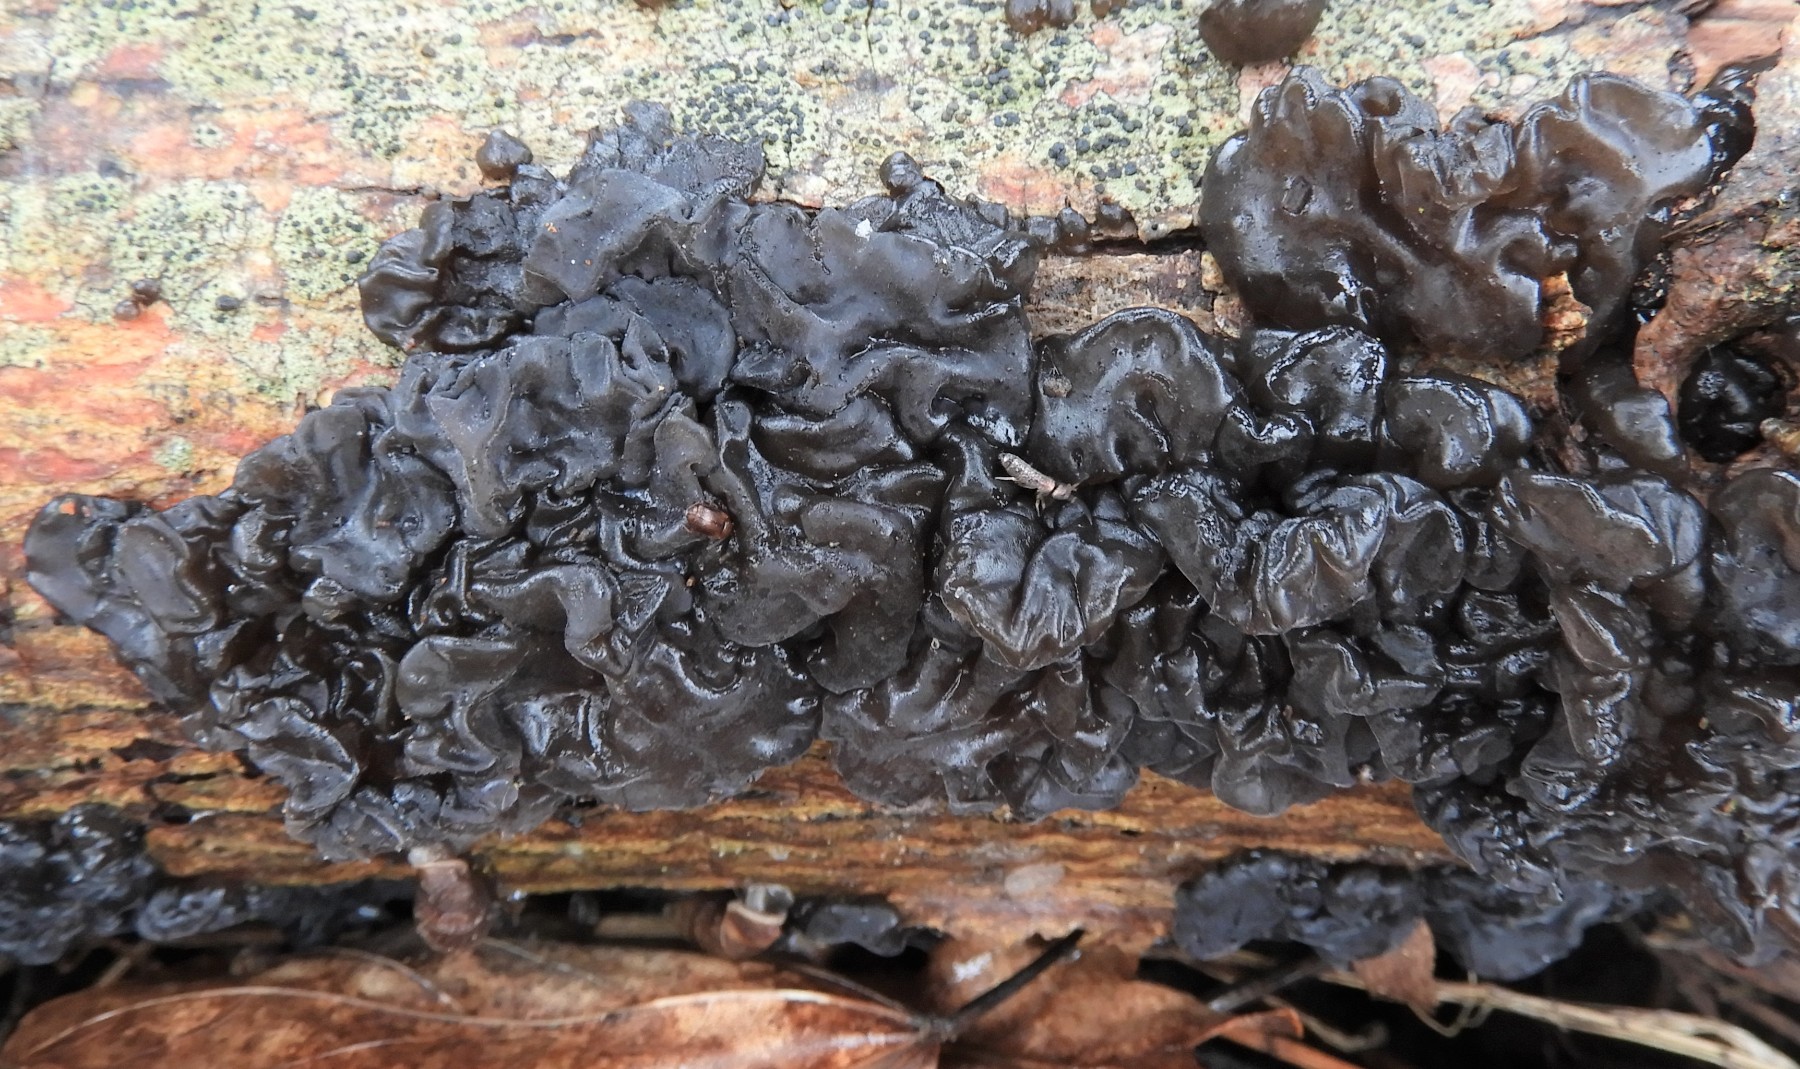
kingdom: Fungi
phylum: Basidiomycota
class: Agaricomycetes
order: Auriculariales
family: Auriculariaceae
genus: Exidia
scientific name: Exidia nigricans
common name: almindelig bævretop
